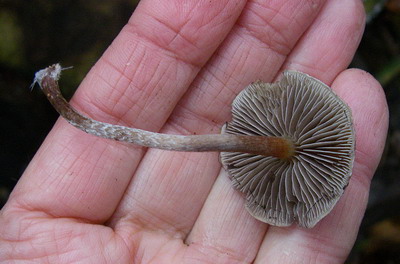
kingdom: Fungi
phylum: Basidiomycota
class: Agaricomycetes
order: Agaricales
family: Strophariaceae
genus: Hypholoma
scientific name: Hypholoma marginatum
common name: enlig svovlhat
